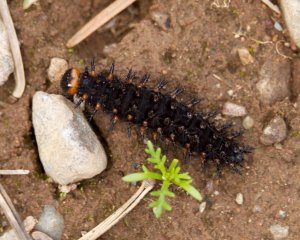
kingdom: Animalia
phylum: Arthropoda
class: Insecta
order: Lepidoptera
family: Nymphalidae
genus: Speyeria
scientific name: Speyeria cybele
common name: Great Spangled Fritillary
